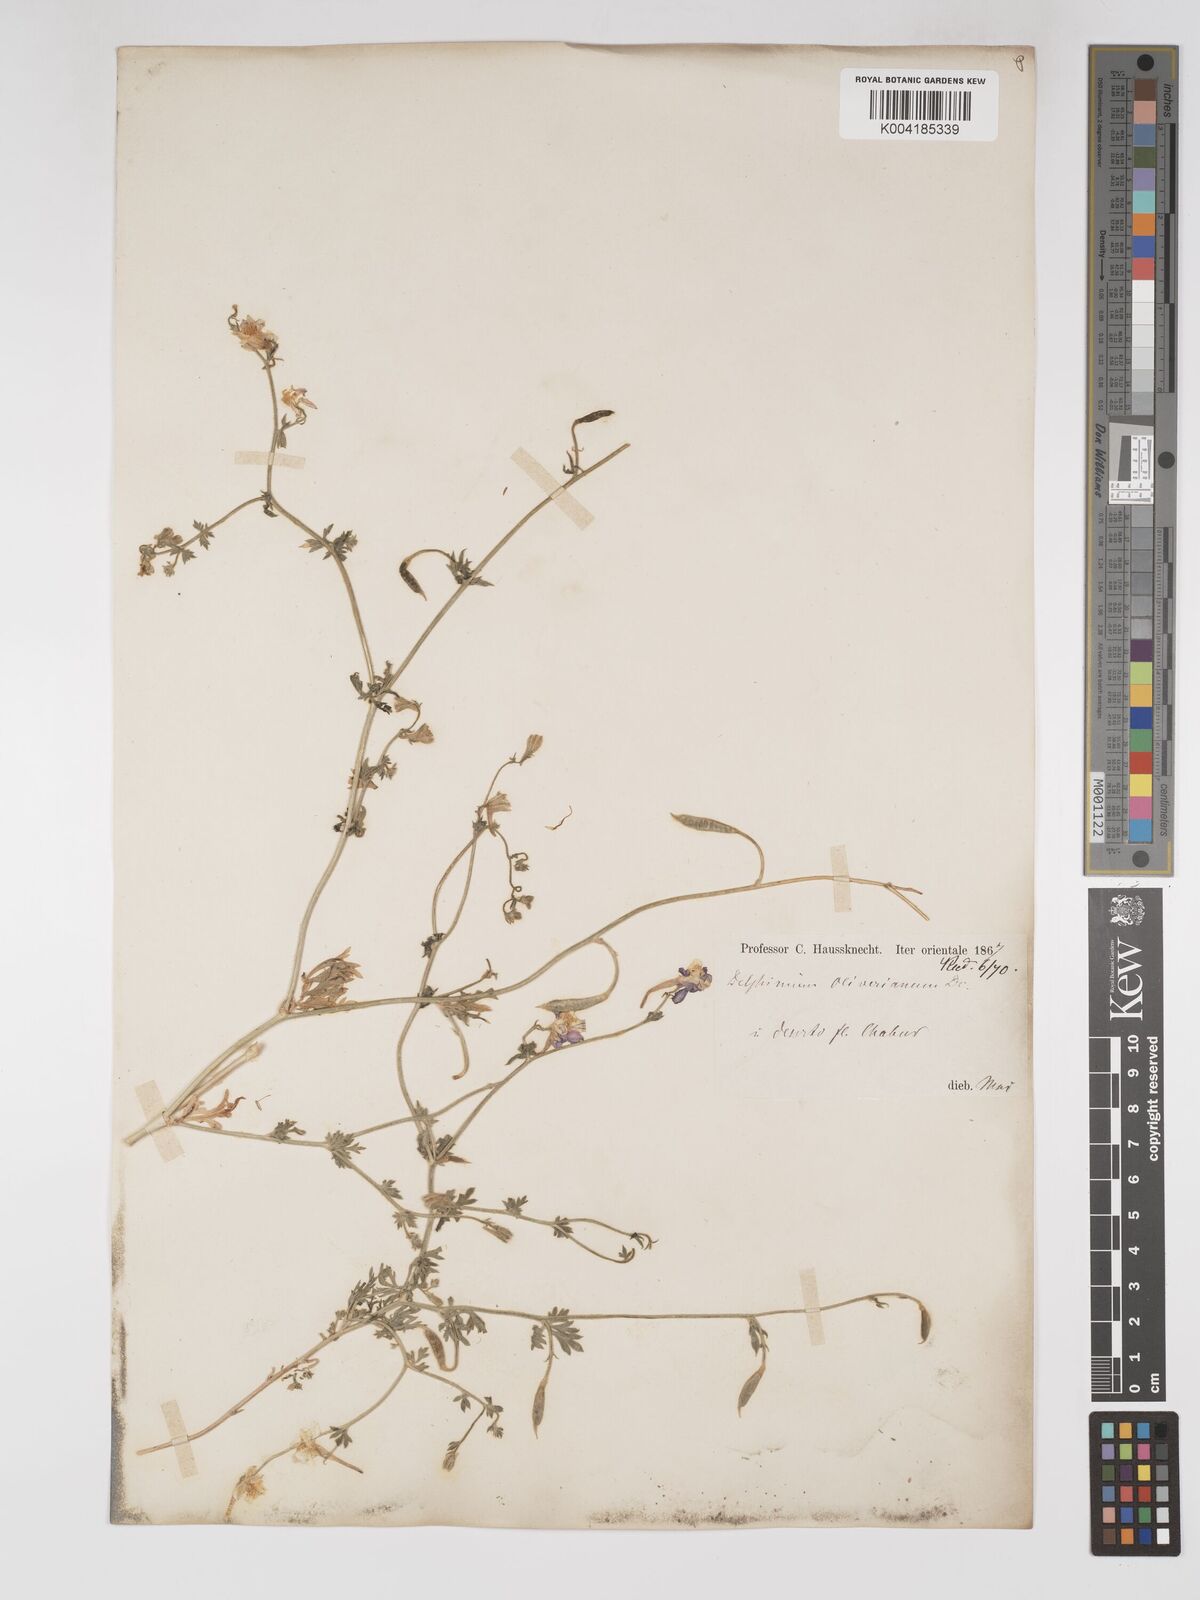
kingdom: Plantae
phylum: Tracheophyta
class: Magnoliopsida
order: Ranunculales
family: Ranunculaceae
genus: Delphinium
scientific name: Delphinium oliverianum
